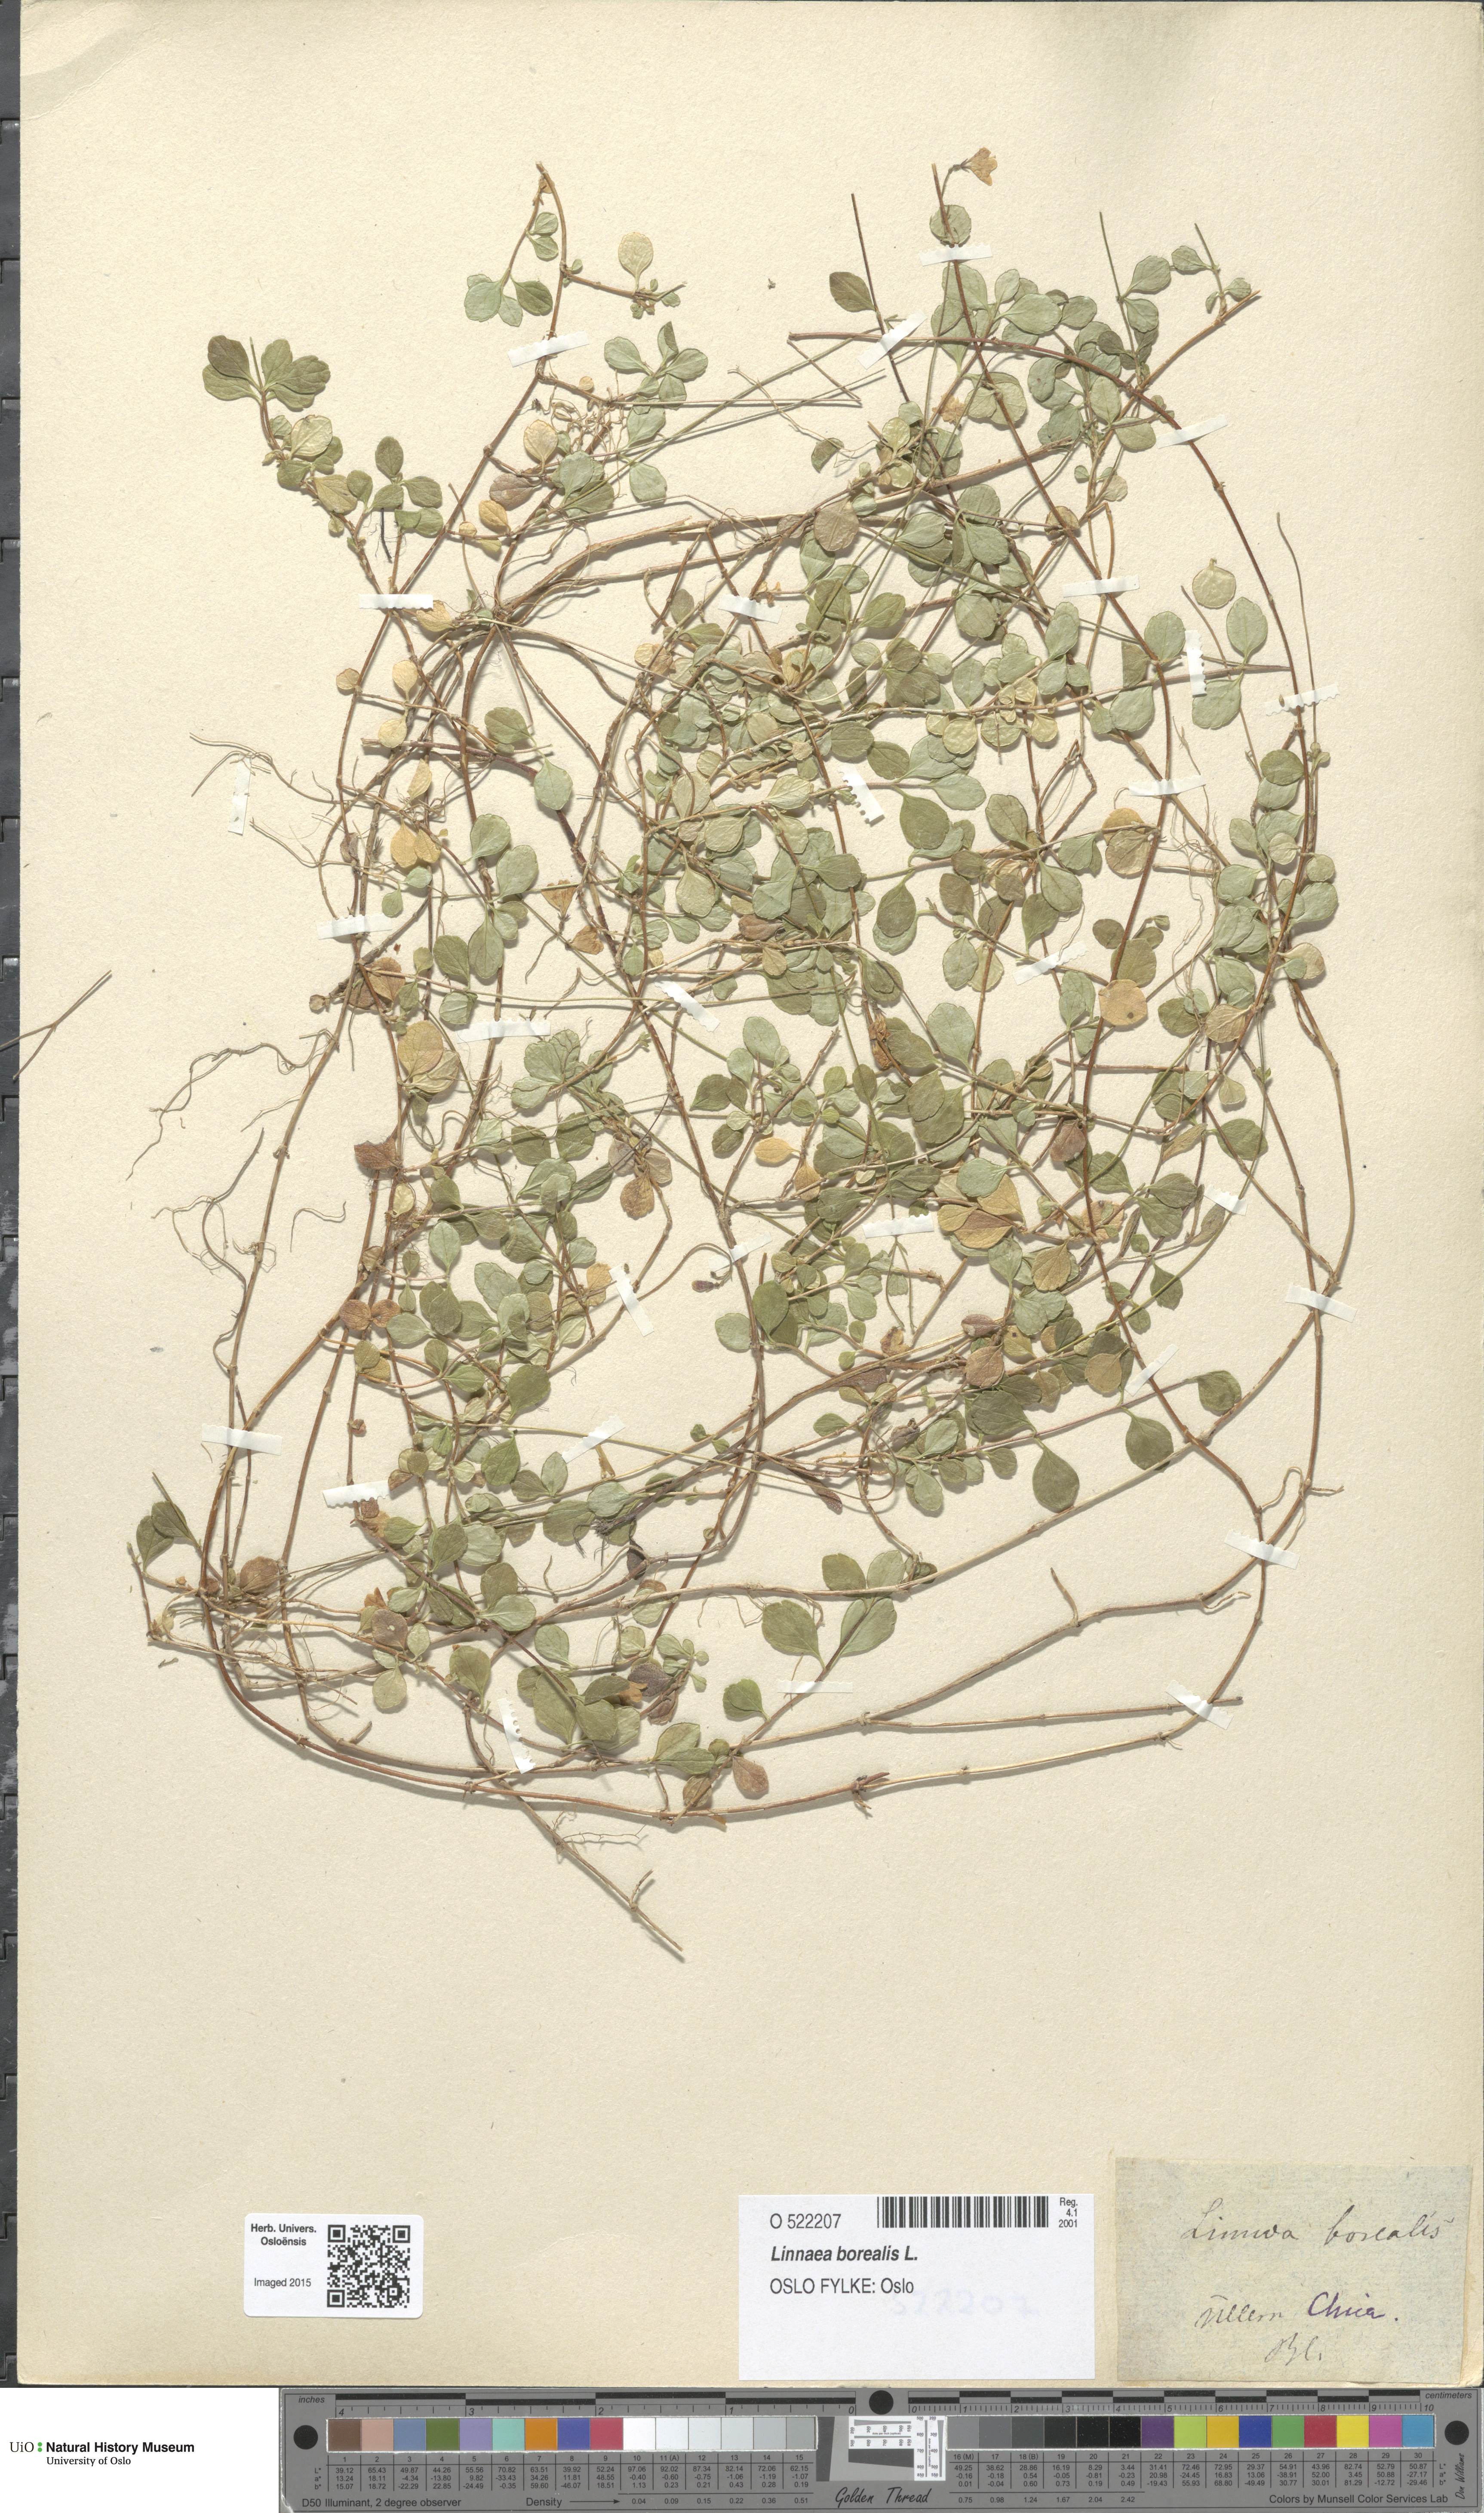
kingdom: Plantae
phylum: Tracheophyta
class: Magnoliopsida
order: Dipsacales
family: Caprifoliaceae
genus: Linnaea
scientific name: Linnaea borealis
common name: Twinflower
